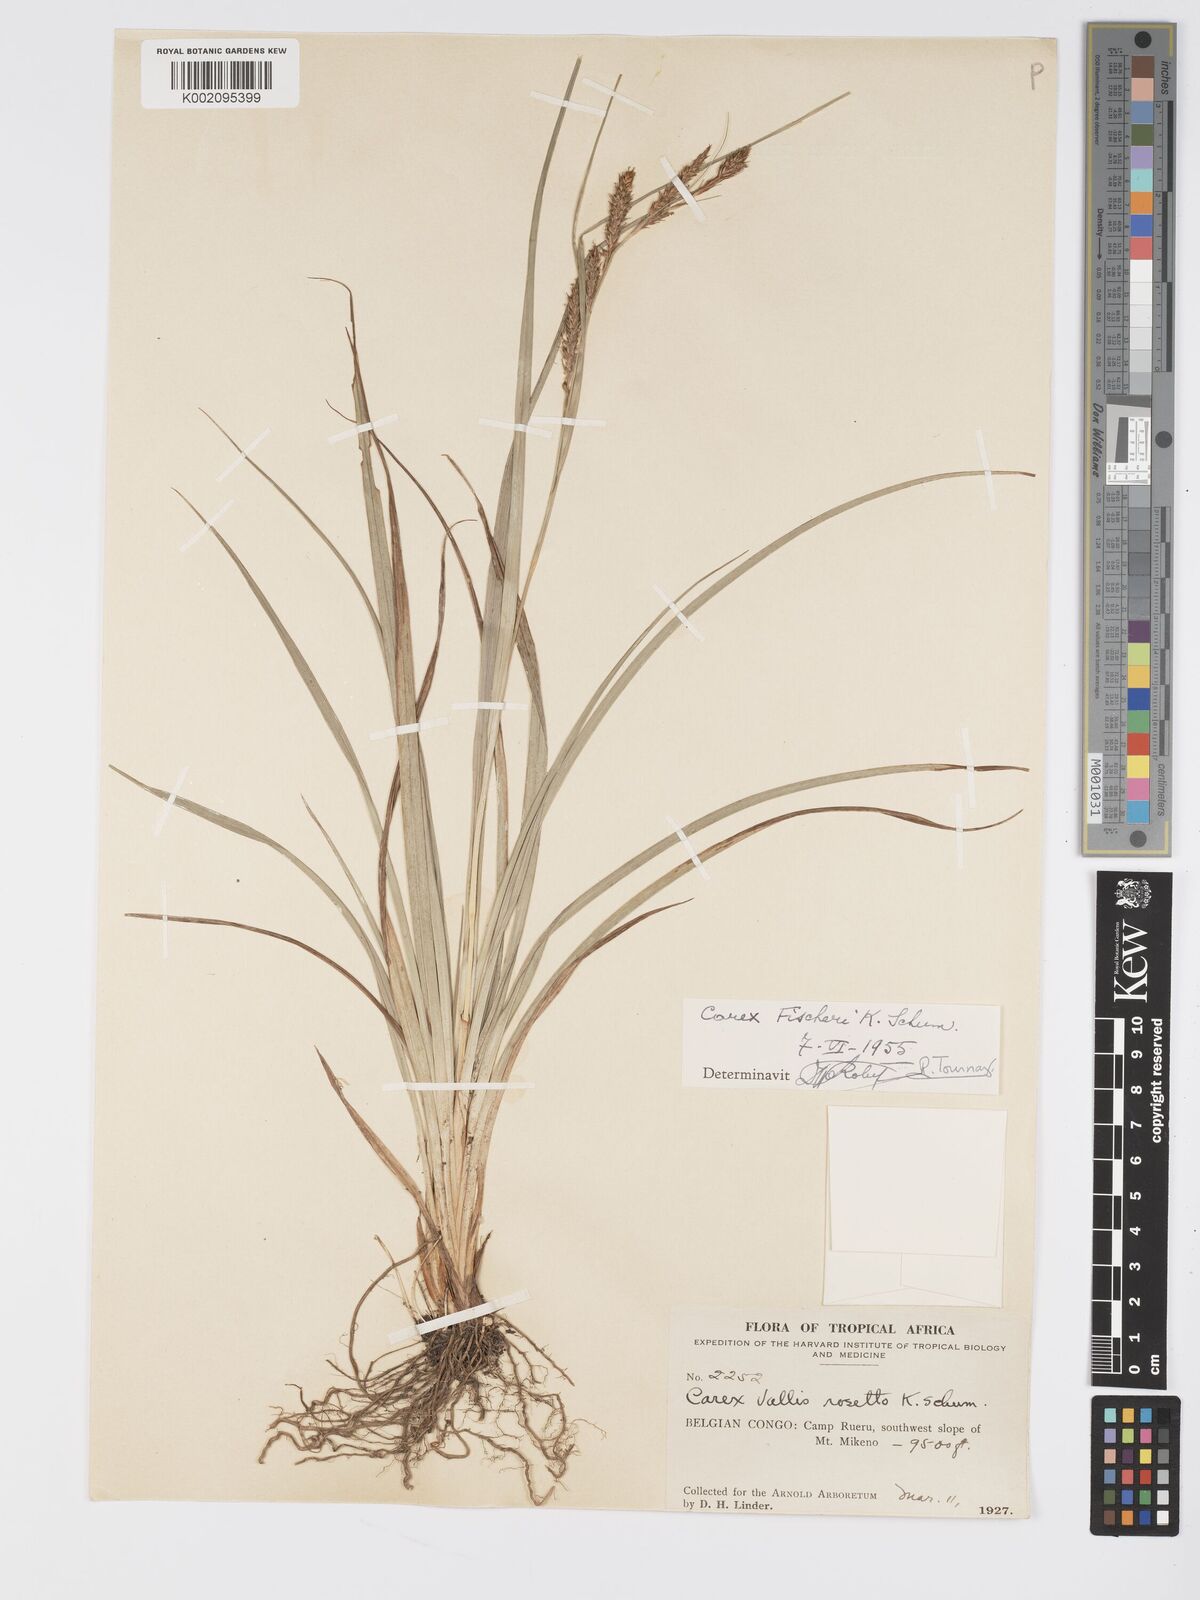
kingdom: Plantae
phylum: Tracheophyta
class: Liliopsida
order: Poales
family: Cyperaceae
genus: Carex
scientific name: Carex petitiana
